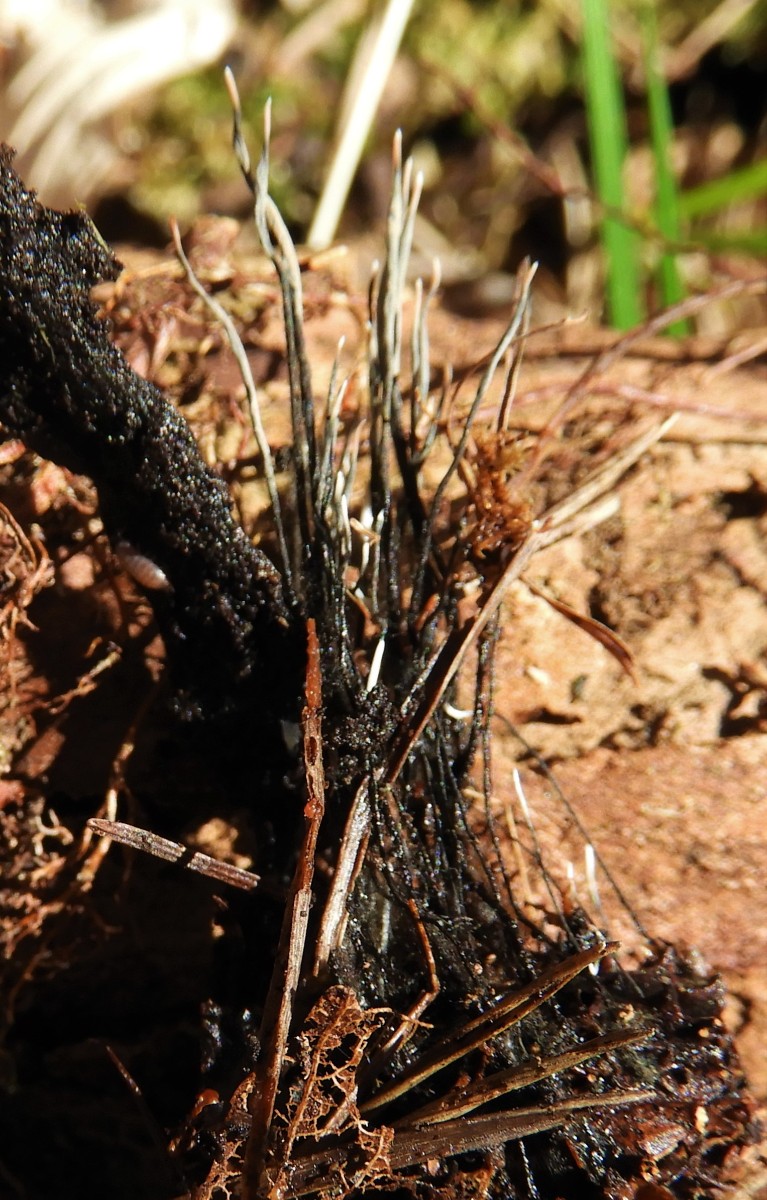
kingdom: Fungi
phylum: Ascomycota
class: Sordariomycetes
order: Xylariales
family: Xylariaceae
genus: Xylaria
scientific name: Xylaria carpophila
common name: bogskål-stødsvamp
